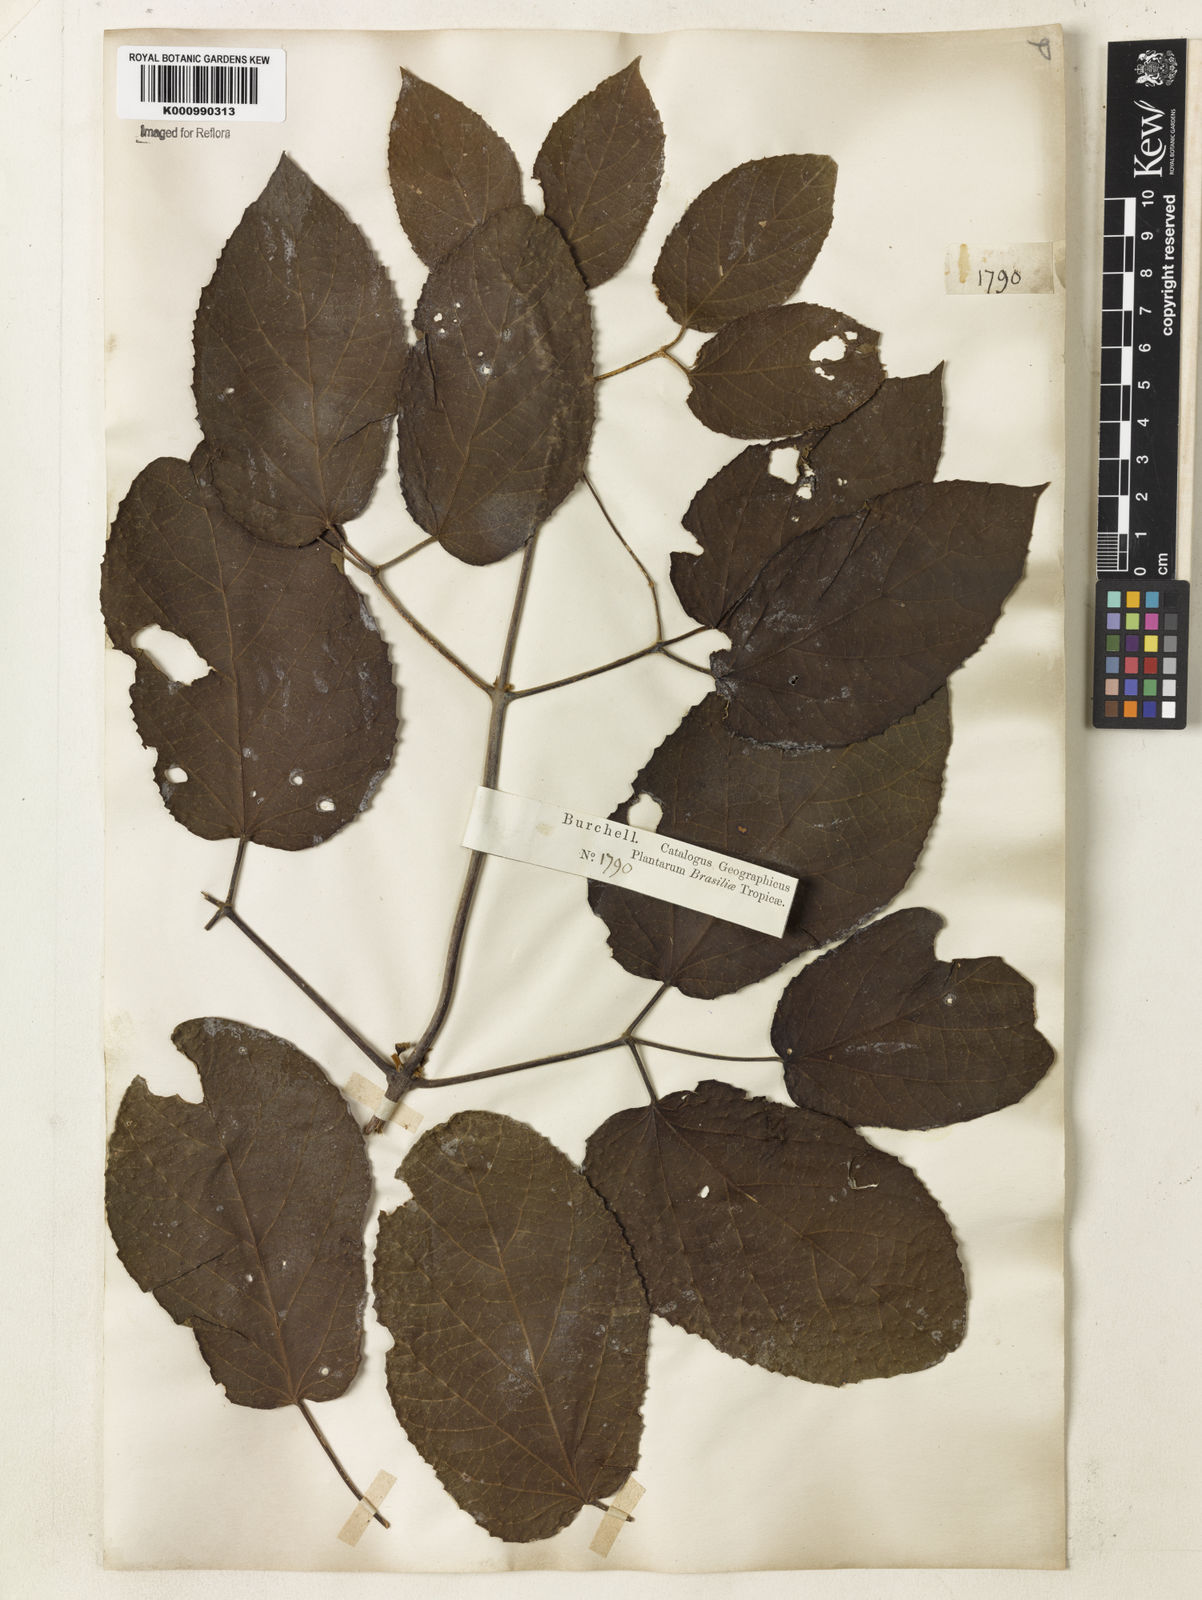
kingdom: Plantae
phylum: Tracheophyta
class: Magnoliopsida
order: Lamiales
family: Bignoniaceae
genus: Stizophyllum
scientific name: Stizophyllum perforatum
